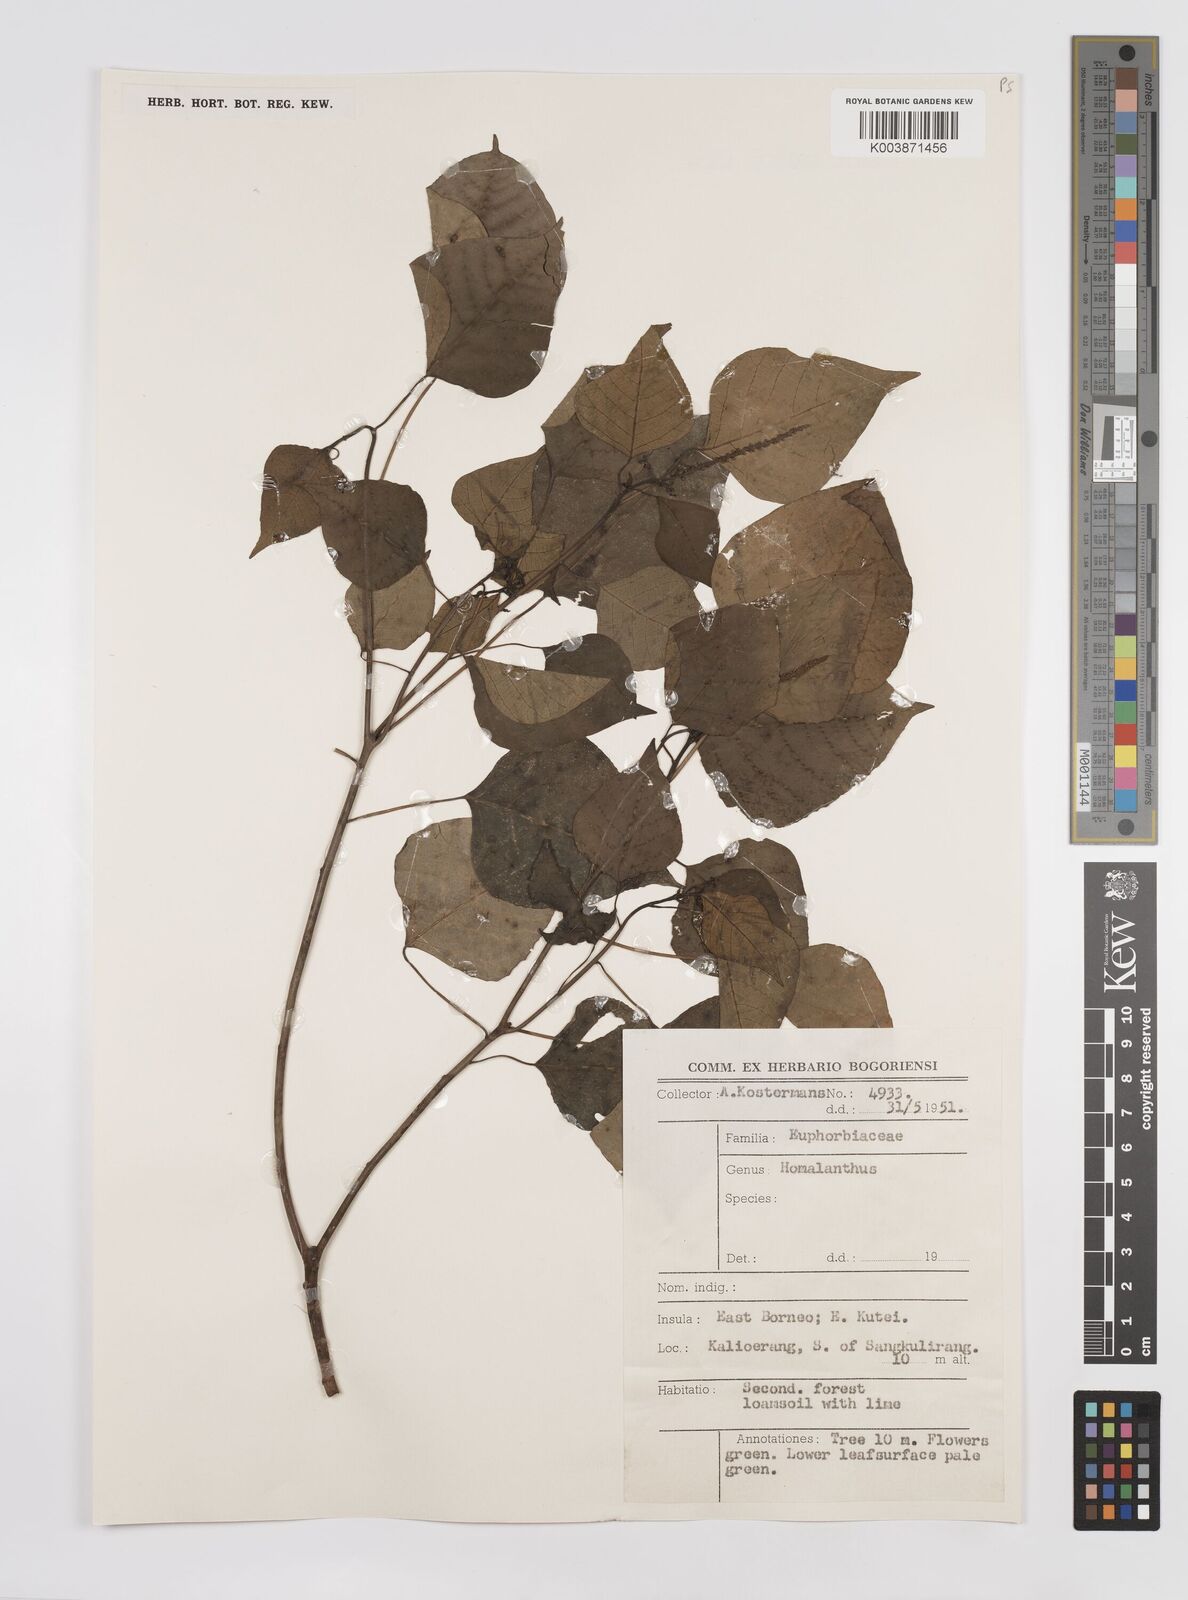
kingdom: Plantae
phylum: Tracheophyta
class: Magnoliopsida
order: Malpighiales
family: Euphorbiaceae
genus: Homalanthus
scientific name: Homalanthus populneus
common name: Spurge
